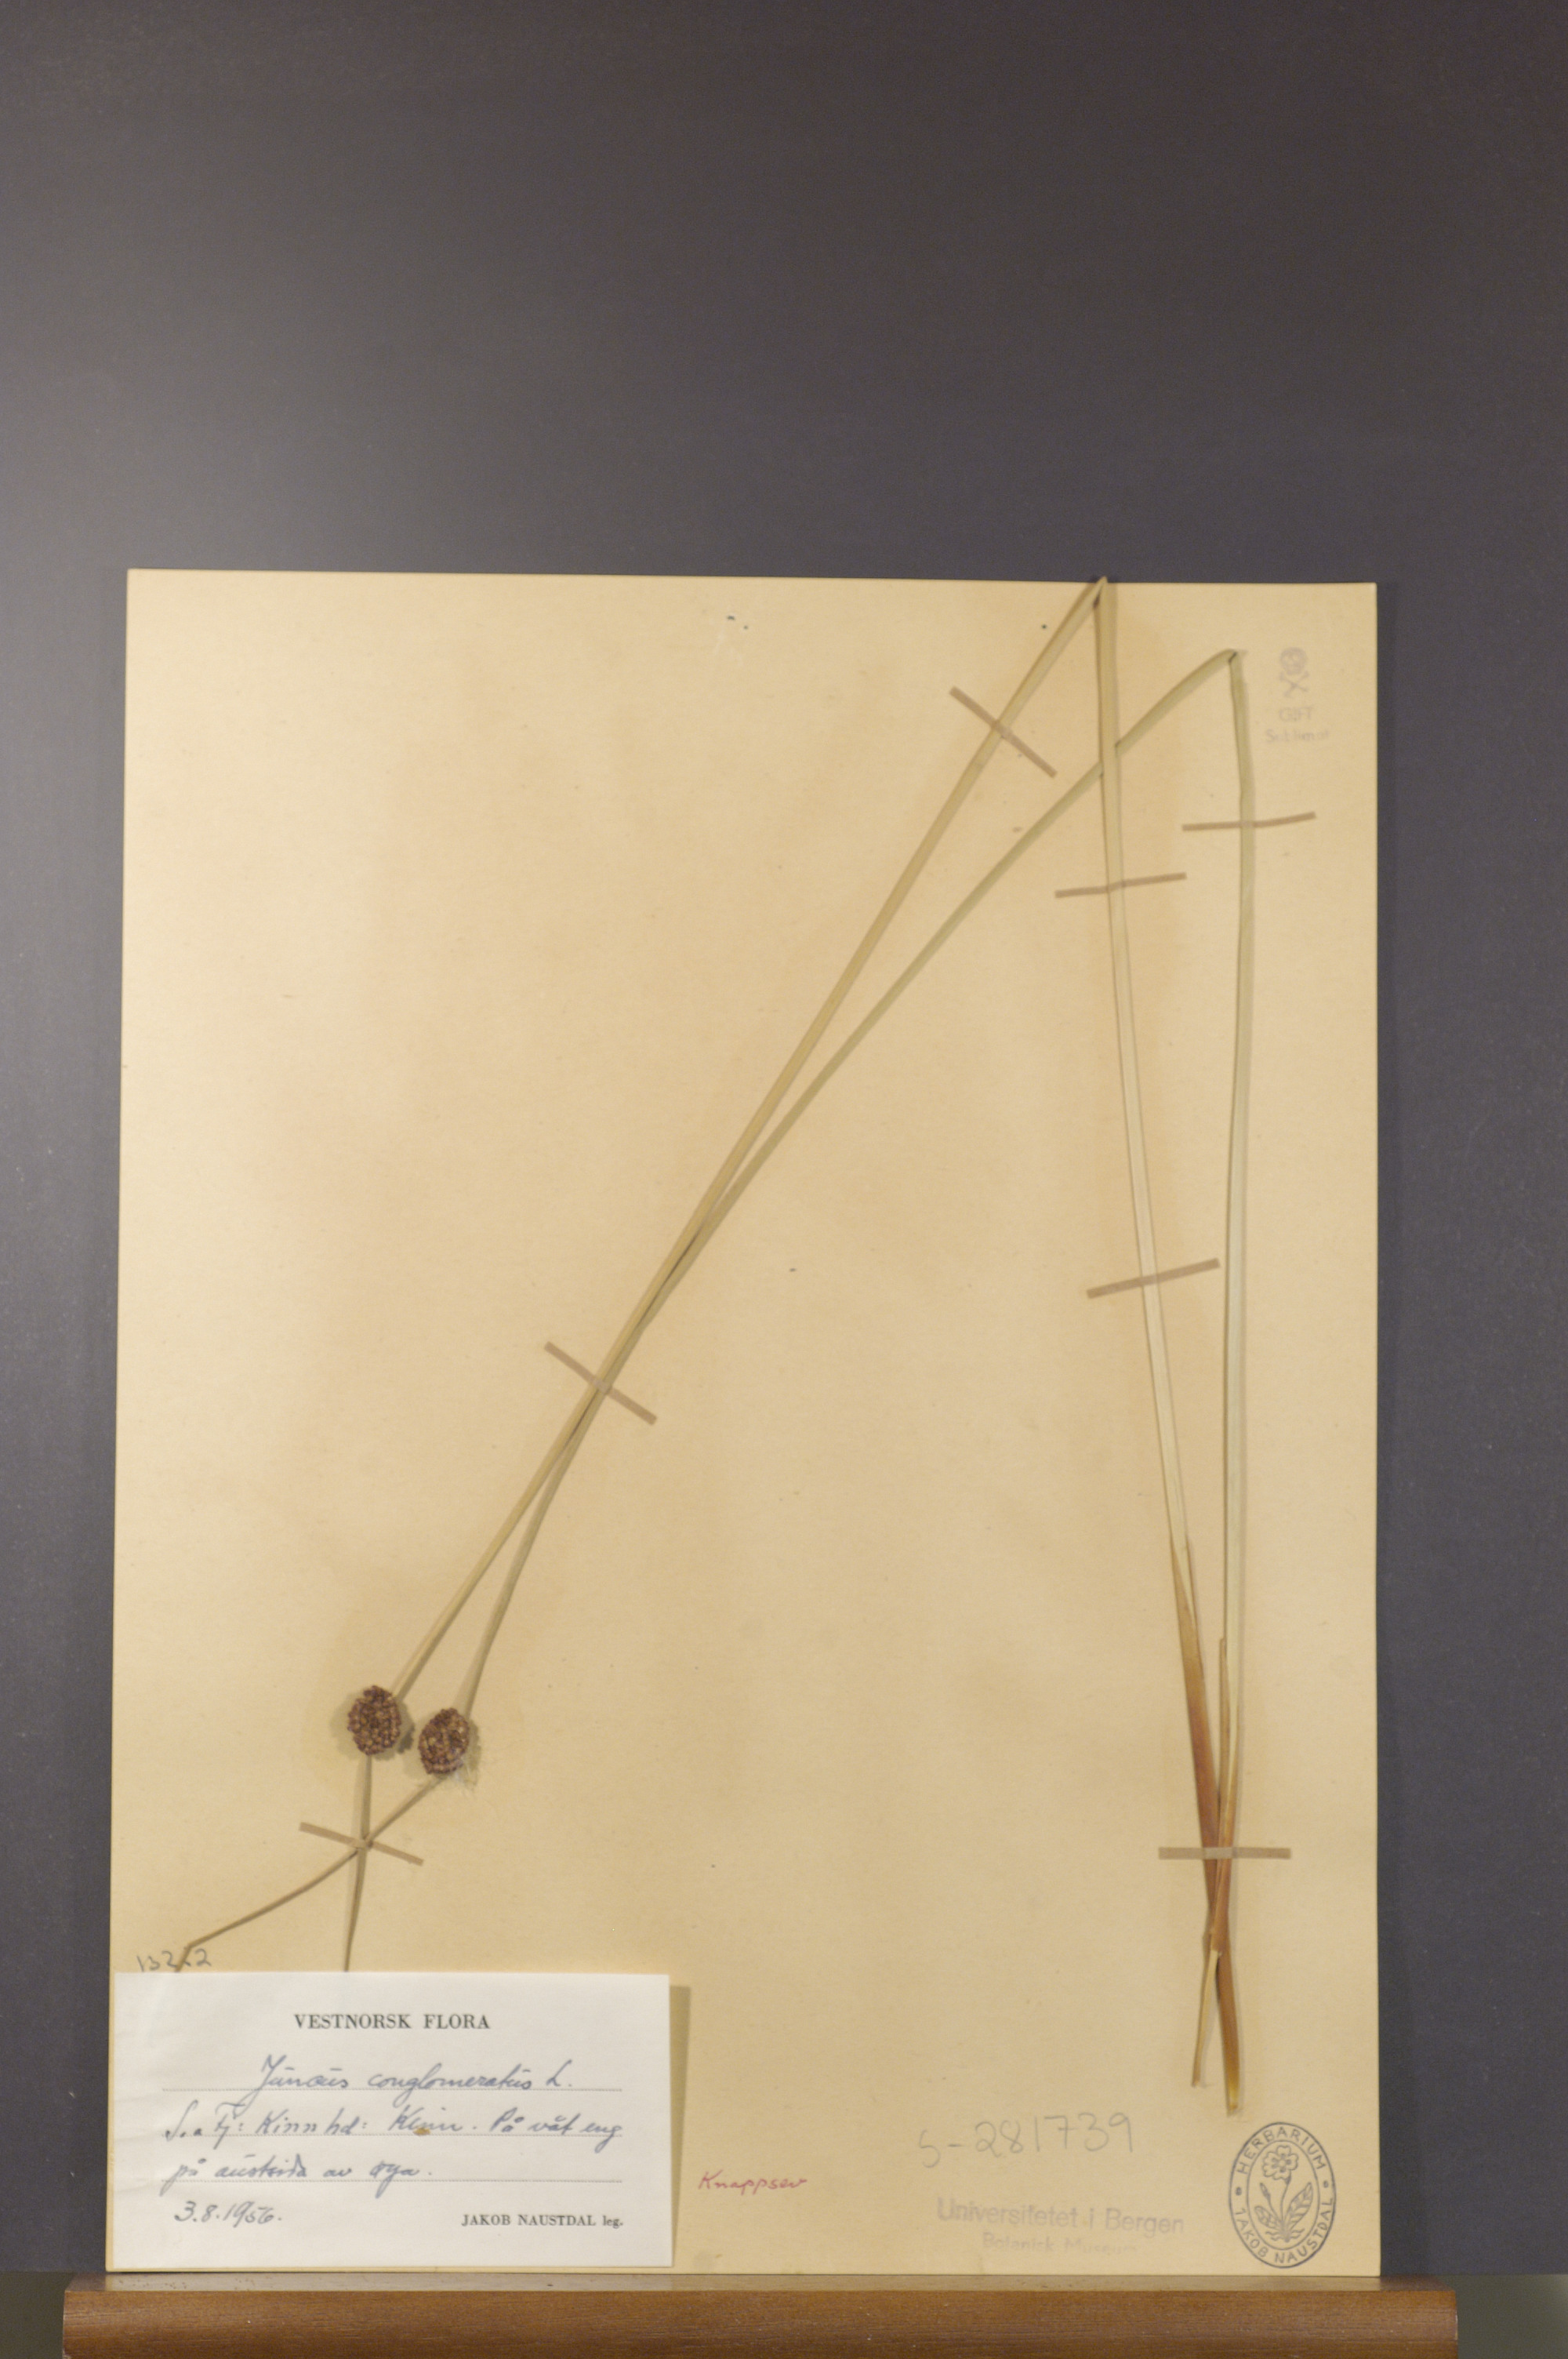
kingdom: Plantae
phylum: Tracheophyta
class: Liliopsida
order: Poales
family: Juncaceae
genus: Juncus
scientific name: Juncus conglomeratus
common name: Compact rush
